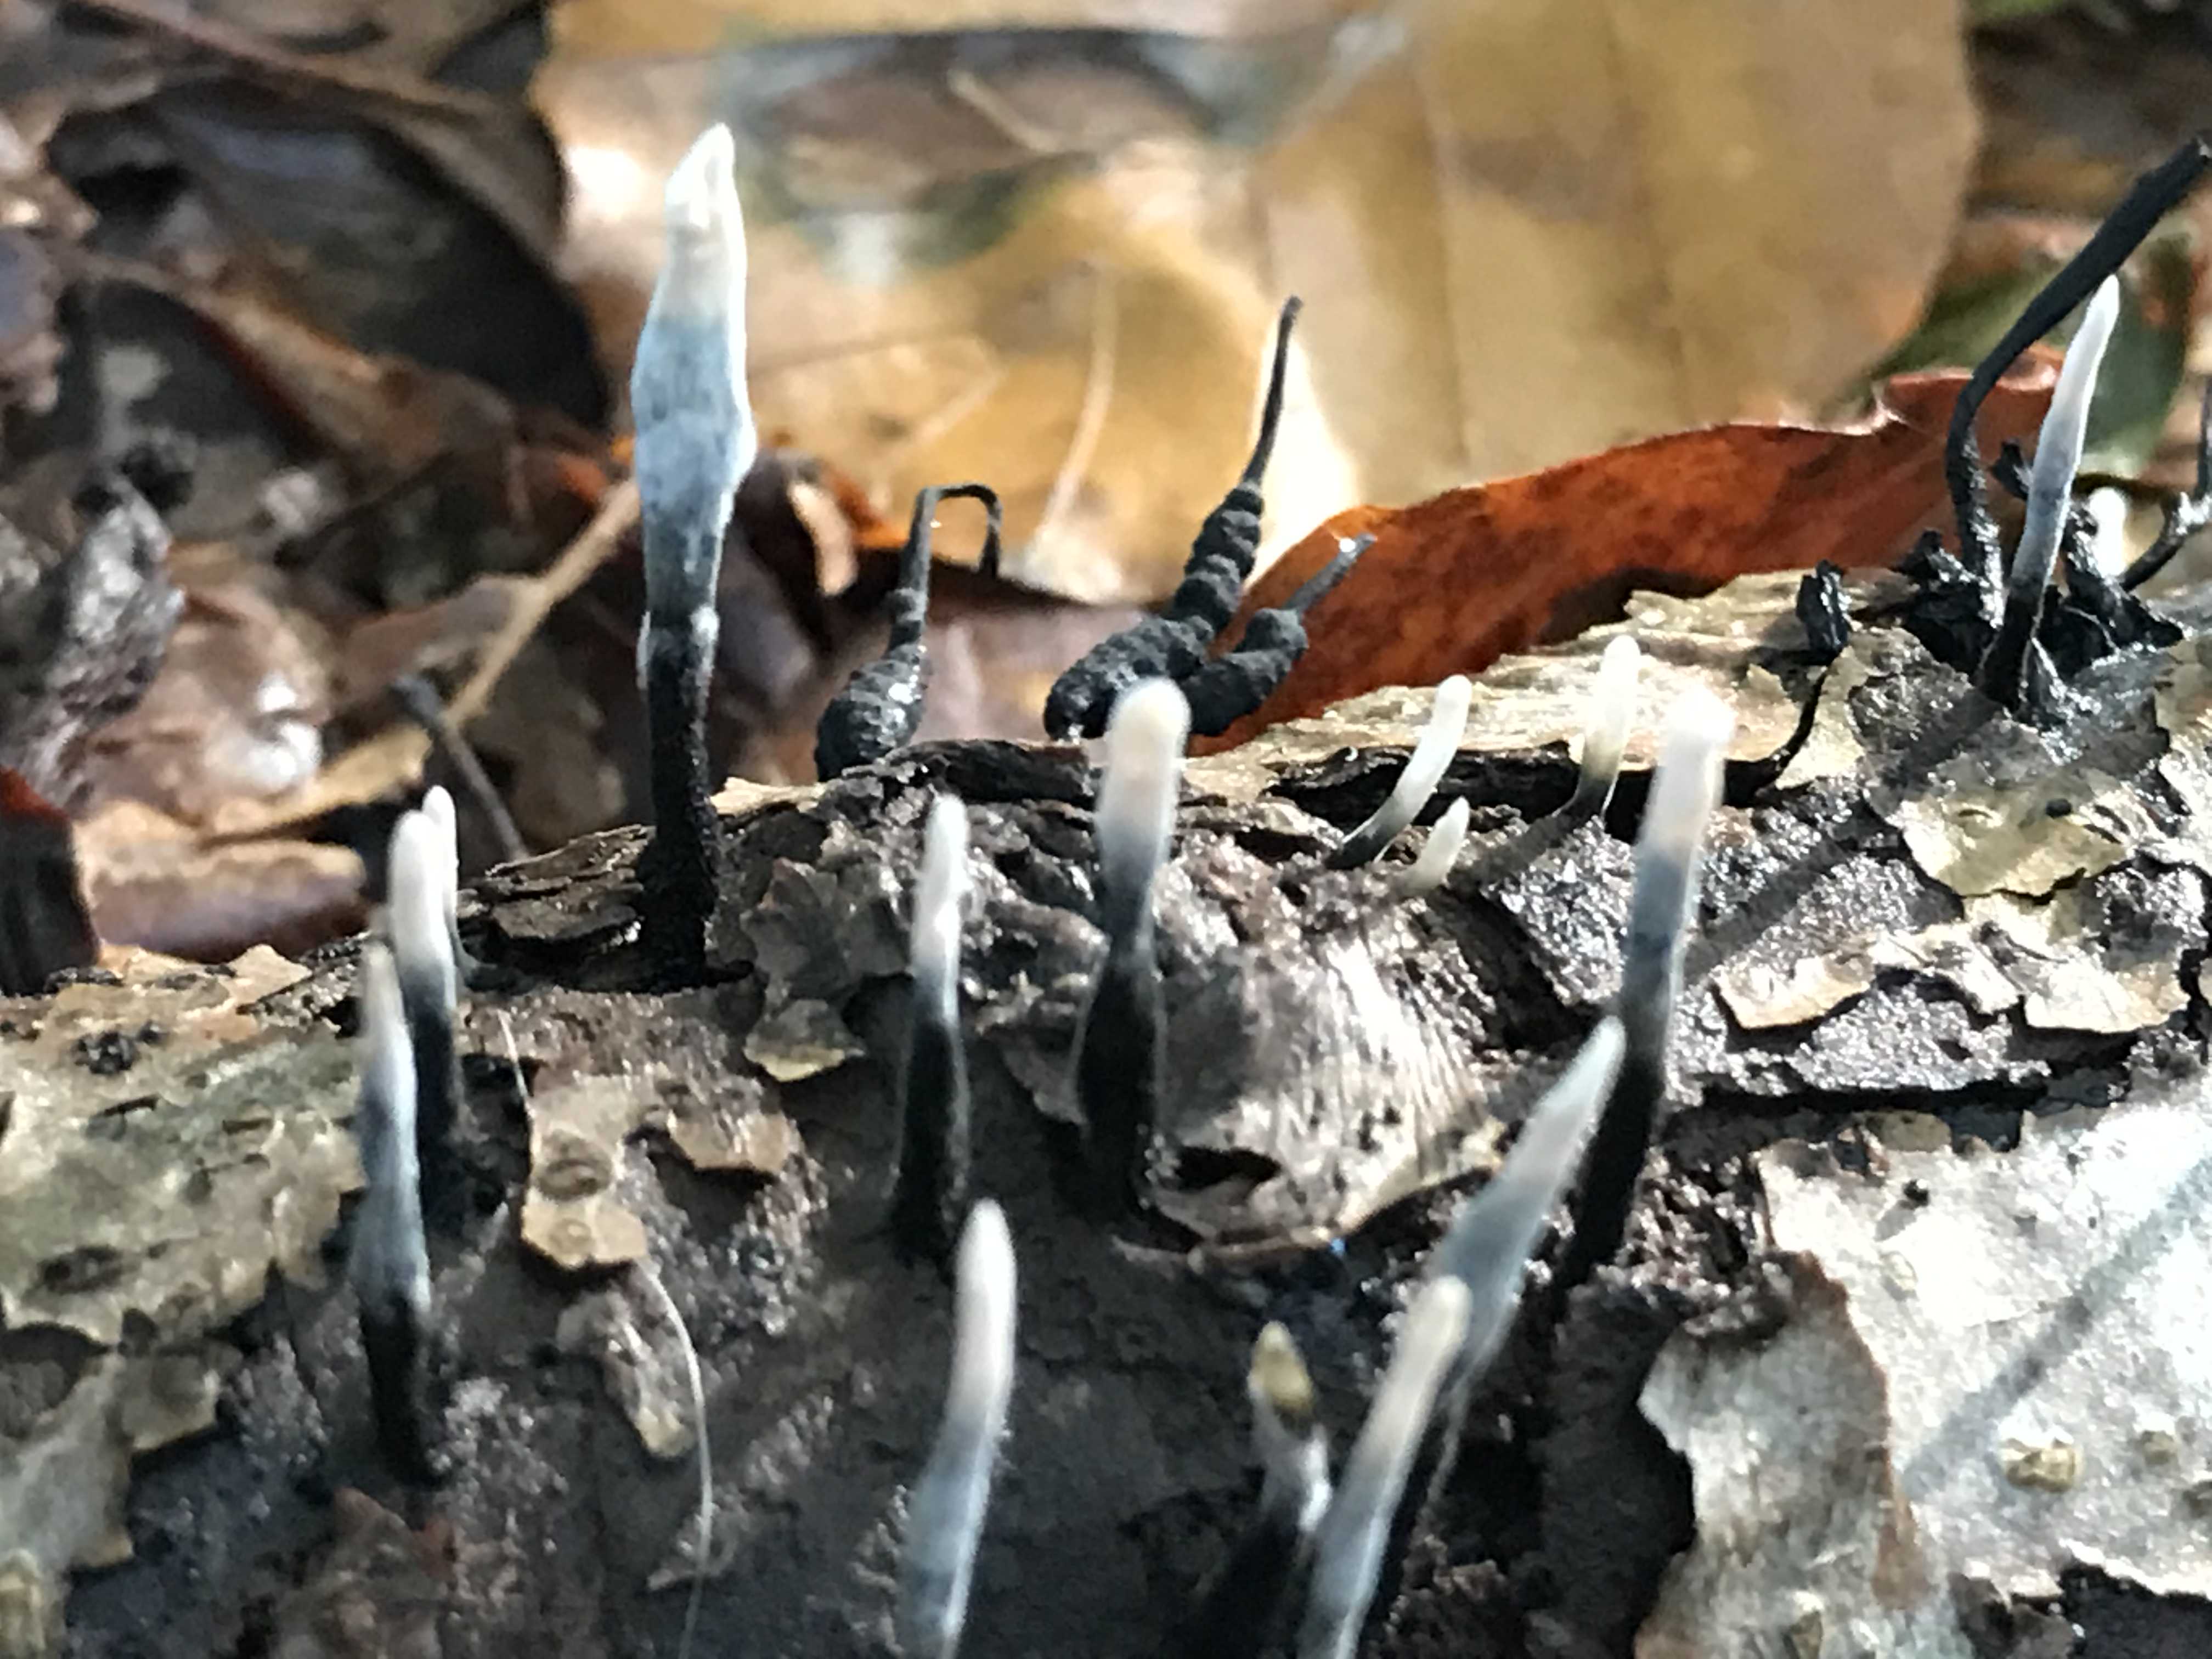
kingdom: Fungi
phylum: Ascomycota
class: Sordariomycetes
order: Xylariales
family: Xylariaceae
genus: Xylaria
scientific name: Xylaria hypoxylon
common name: grenet stødsvamp
